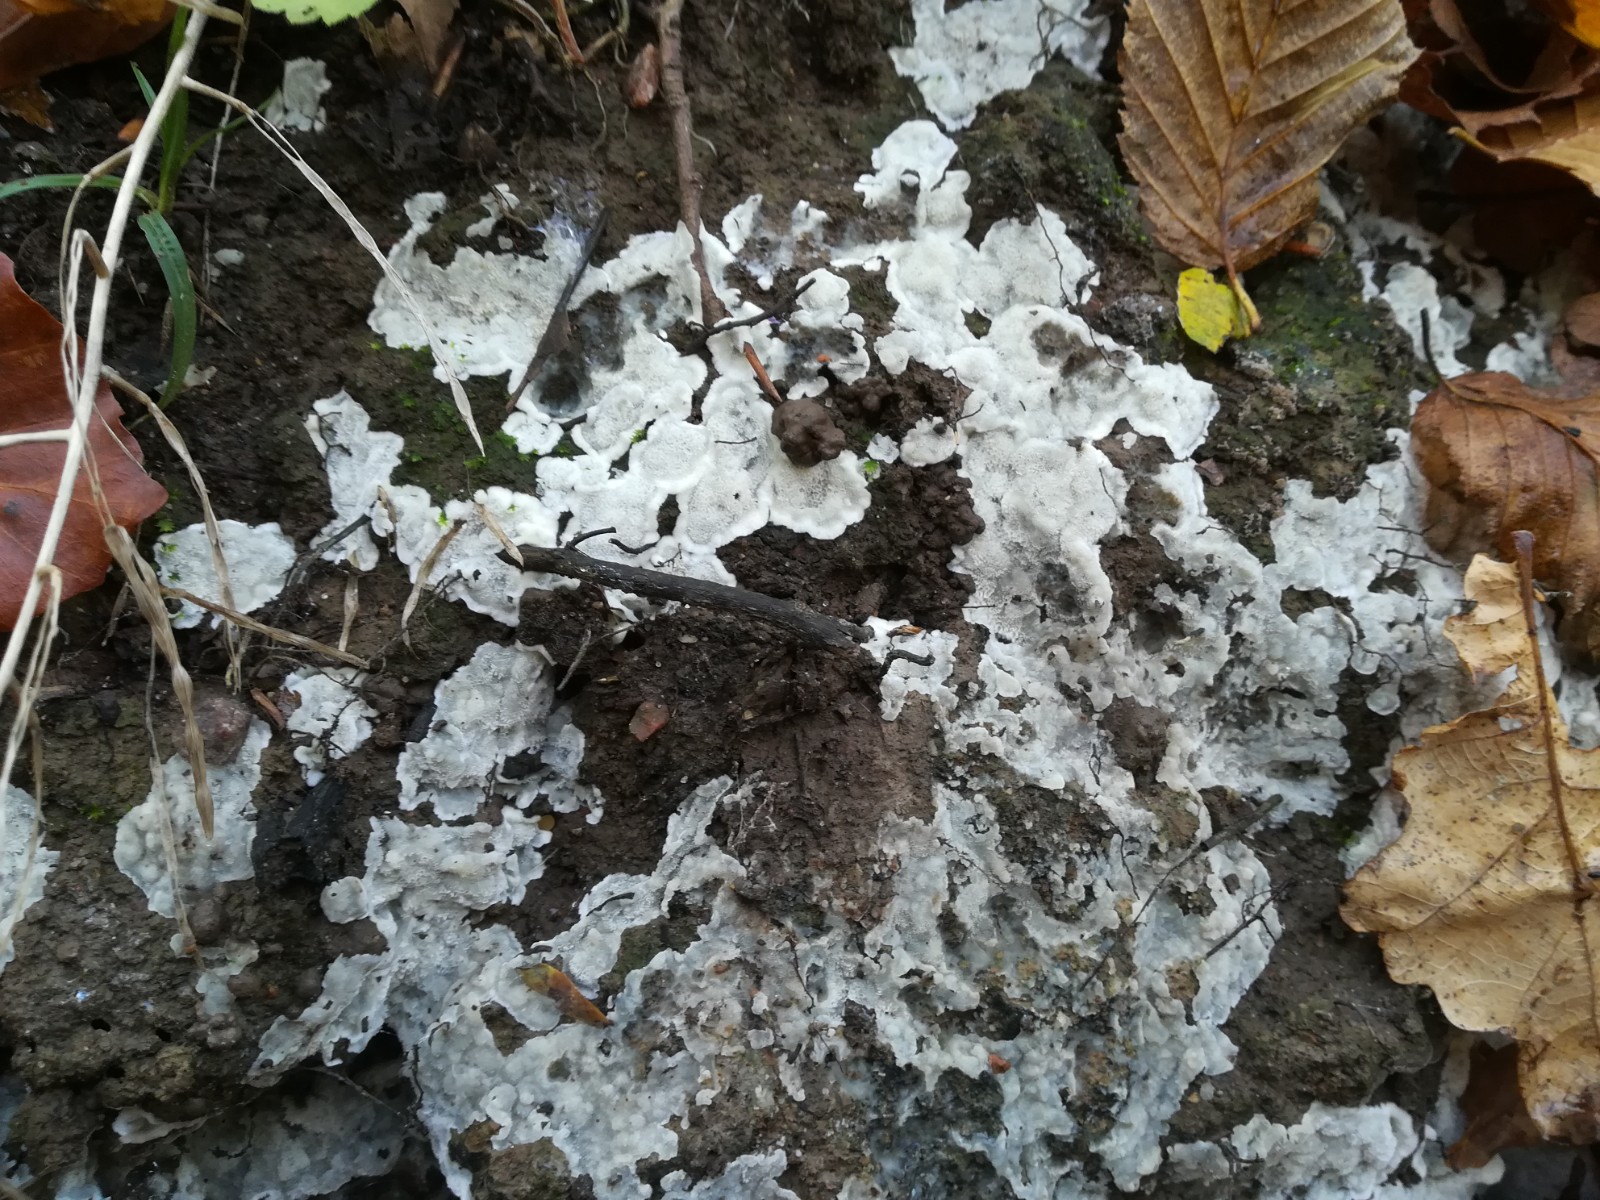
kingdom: Fungi
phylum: Basidiomycota
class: Agaricomycetes
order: Polyporales
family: Meruliaceae
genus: Physisporinus
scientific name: Physisporinus vitreus
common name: mastesvamp
